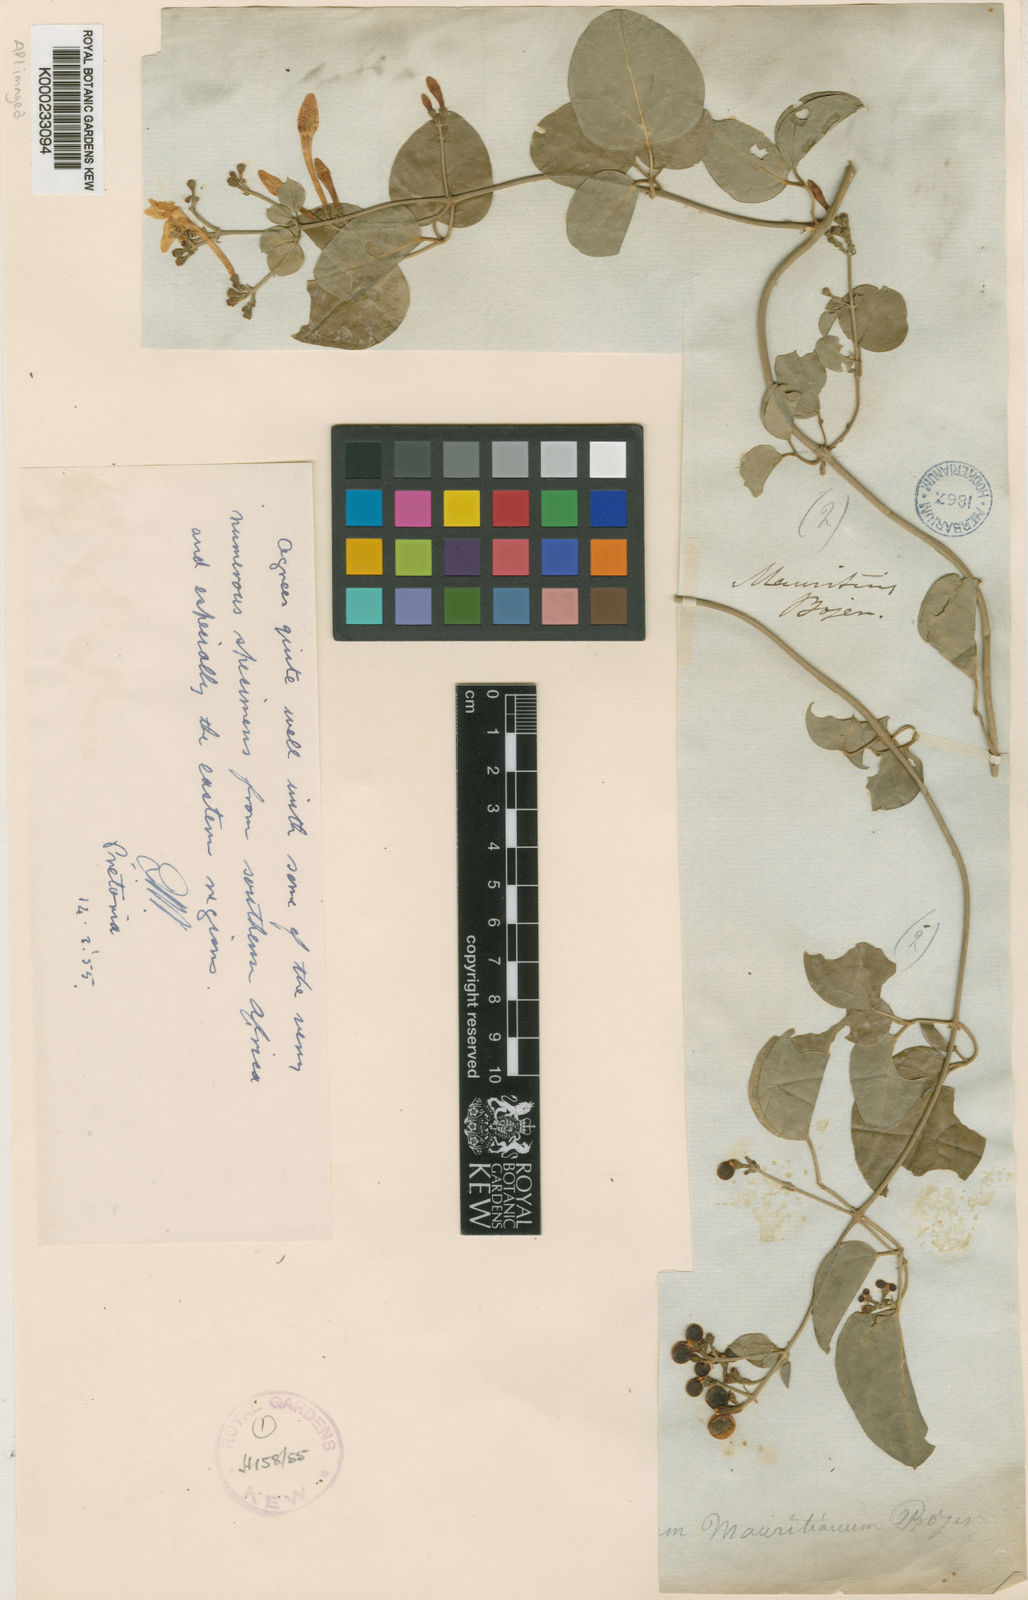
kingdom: Plantae
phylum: Tracheophyta
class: Magnoliopsida
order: Lamiales
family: Oleaceae
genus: Jasminum
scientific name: Jasminum fluminense
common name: Brazilian jasmine
